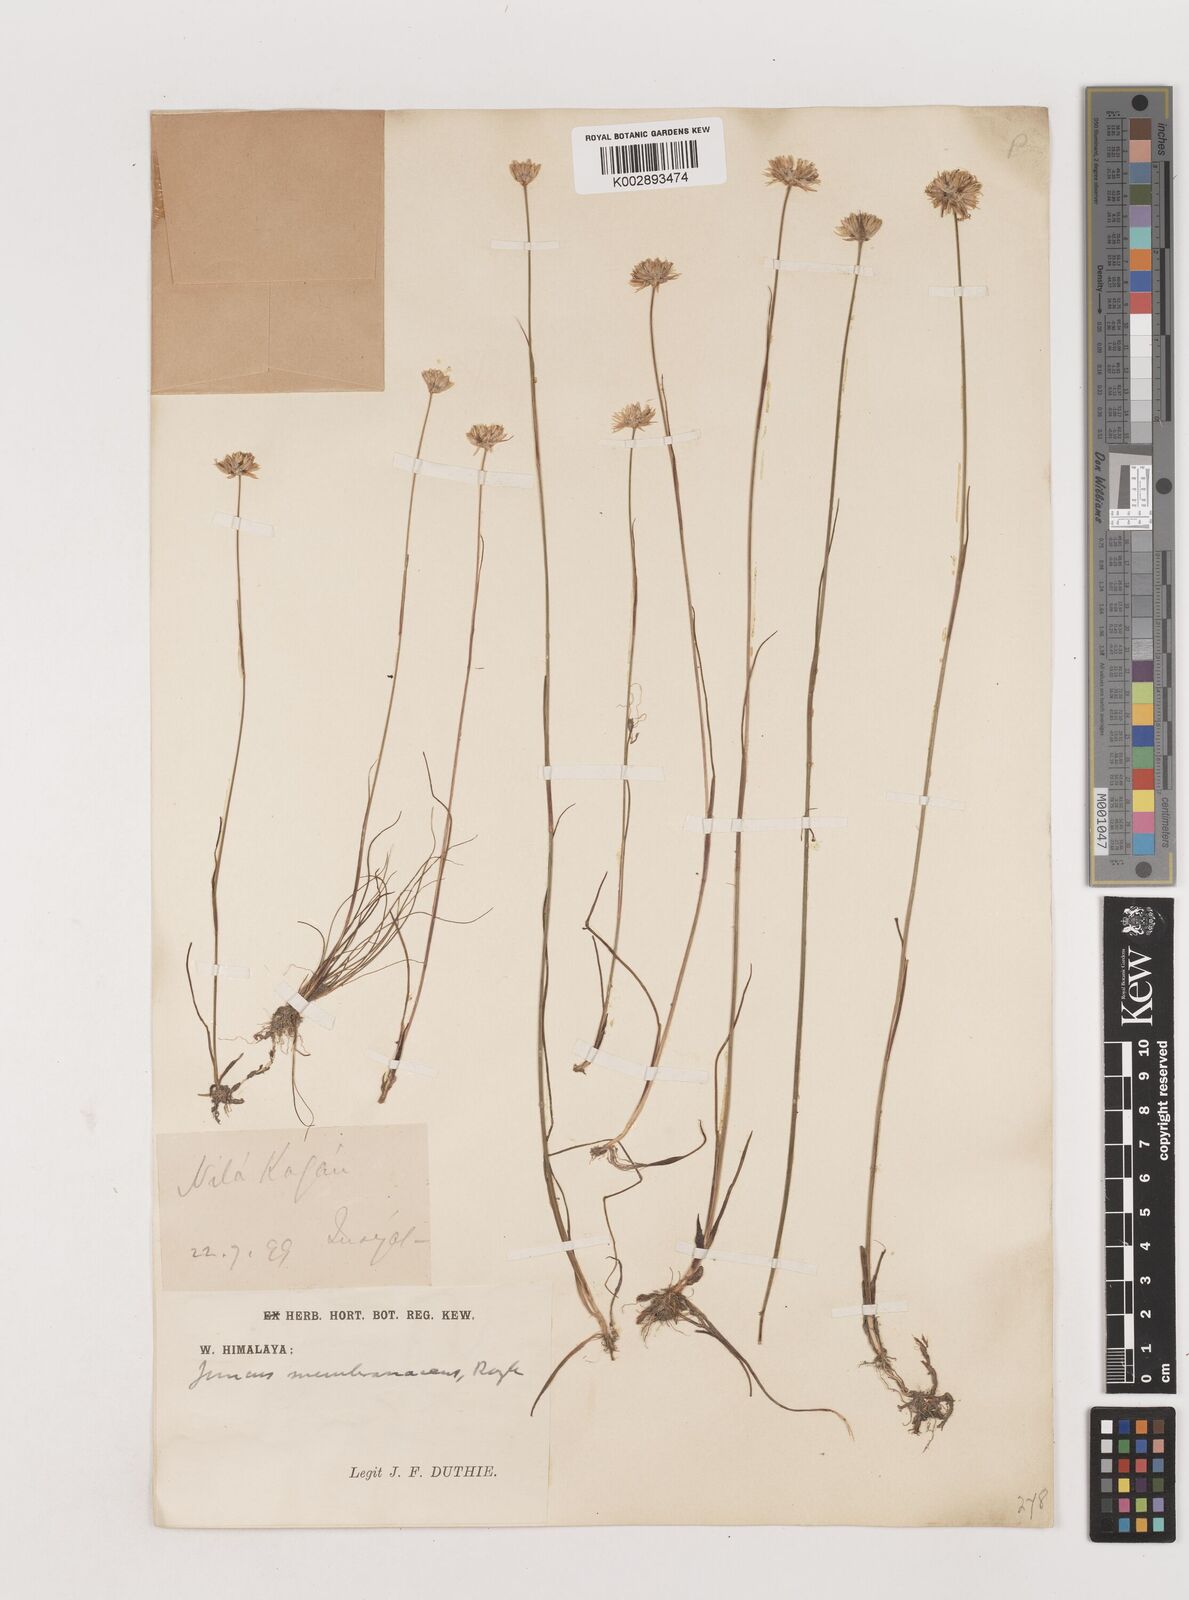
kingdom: Plantae
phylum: Tracheophyta
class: Liliopsida
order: Poales
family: Juncaceae
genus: Juncus
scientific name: Juncus membranaceus
